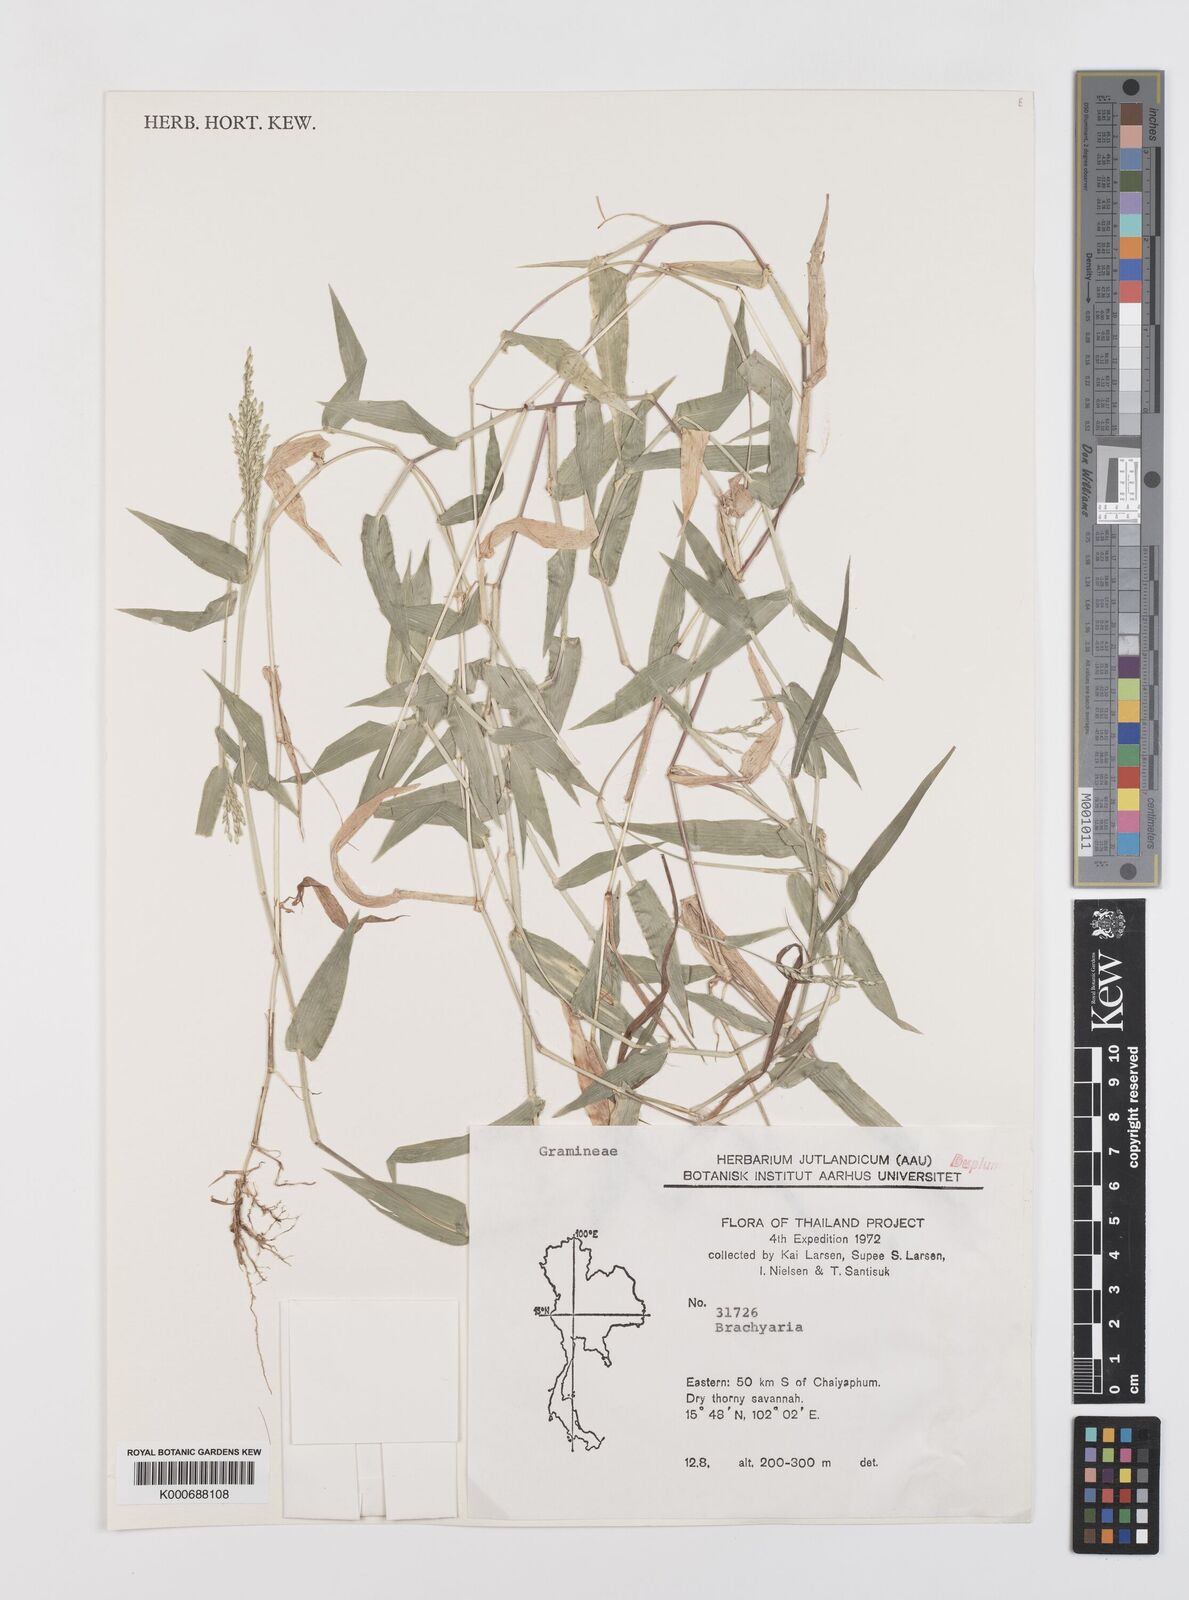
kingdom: Plantae
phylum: Tracheophyta
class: Liliopsida
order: Poales
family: Poaceae
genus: Brachiaria
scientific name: Brachiaria
